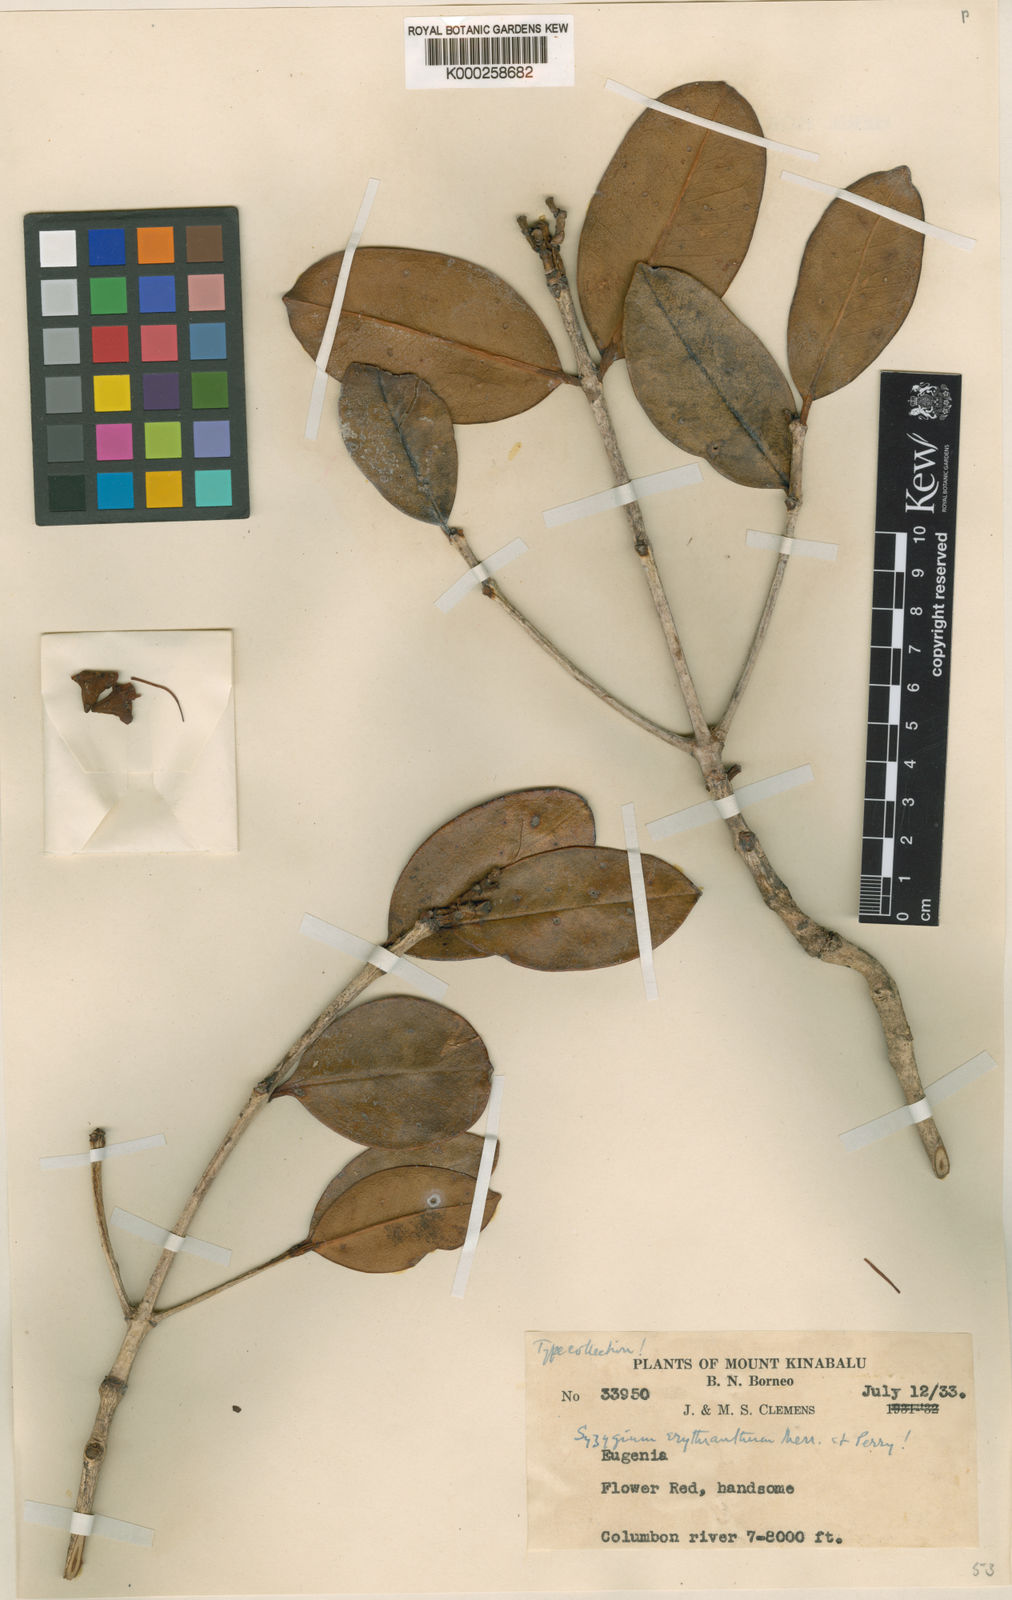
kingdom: Plantae
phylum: Tracheophyta
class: Magnoliopsida
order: Myrtales
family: Myrtaceae
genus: Syzygium
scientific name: Syzygium erythranthum
